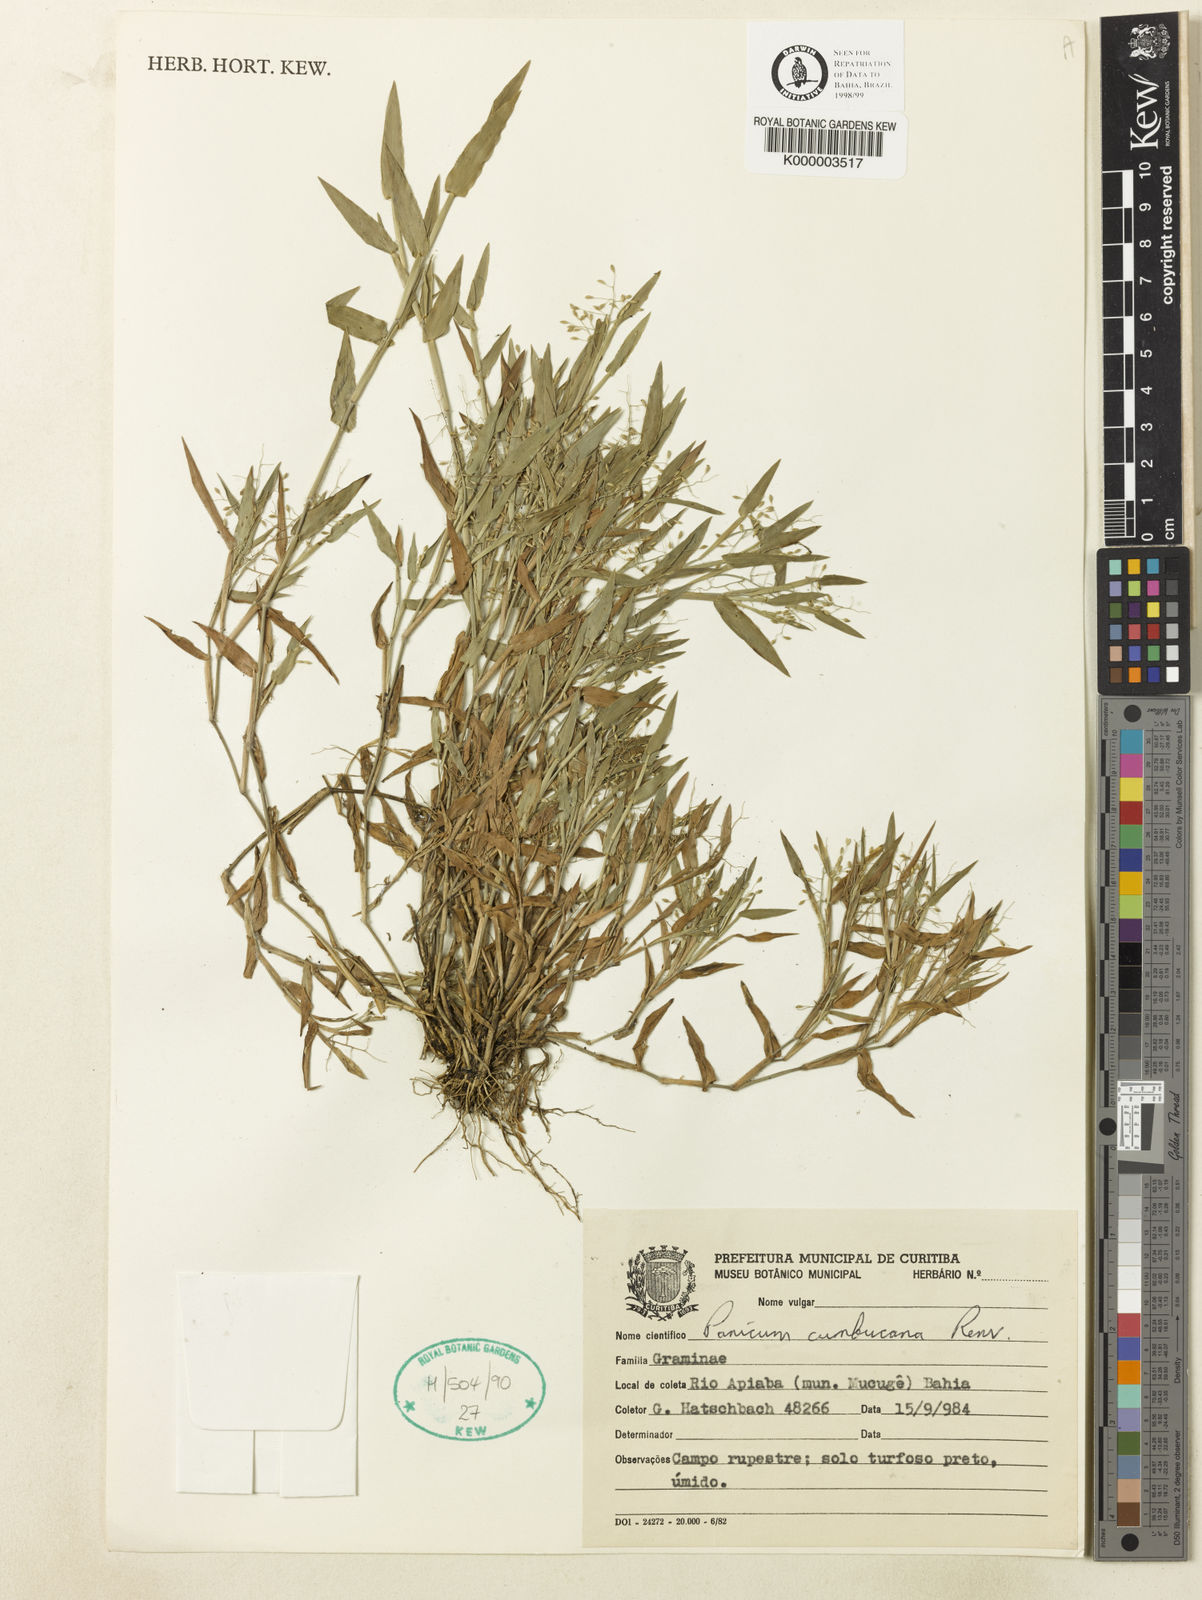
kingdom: Plantae
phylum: Tracheophyta
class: Liliopsida
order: Poales
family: Poaceae
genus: Dichanthelium
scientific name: Dichanthelium cumbucanum
